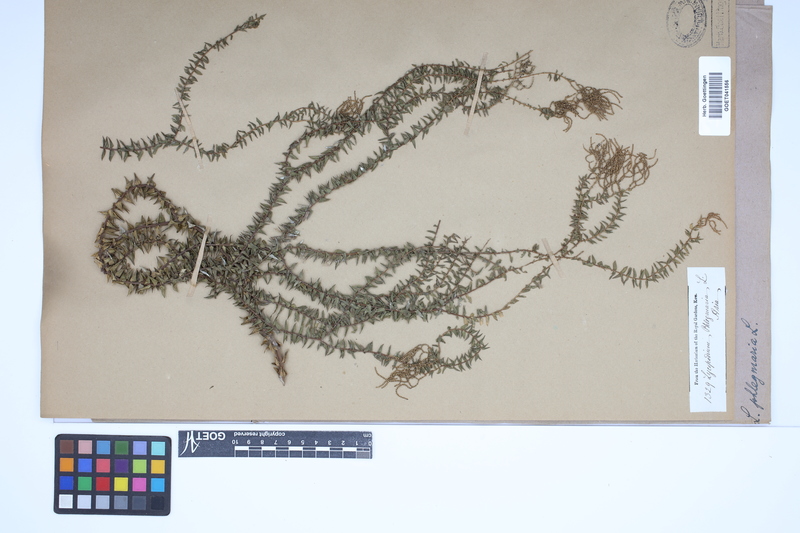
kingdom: Plantae
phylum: Tracheophyta
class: Lycopodiopsida
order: Lycopodiales
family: Lycopodiaceae
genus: Phlegmariurus
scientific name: Phlegmariurus phlegmaria
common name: Coarse tassel-fern
